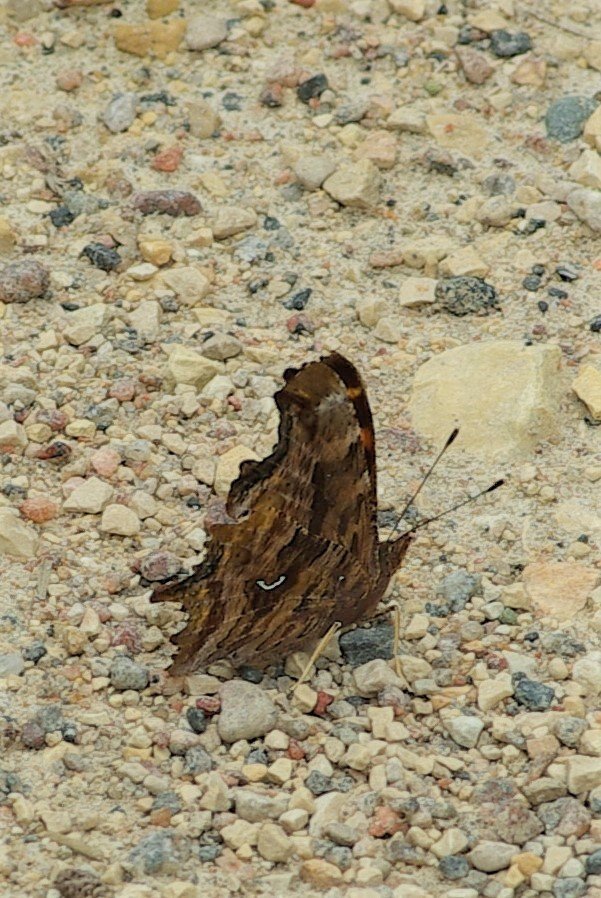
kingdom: Animalia
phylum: Arthropoda
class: Insecta
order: Lepidoptera
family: Nymphalidae
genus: Polygonia
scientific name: Polygonia satyrus
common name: Satyr Comma
